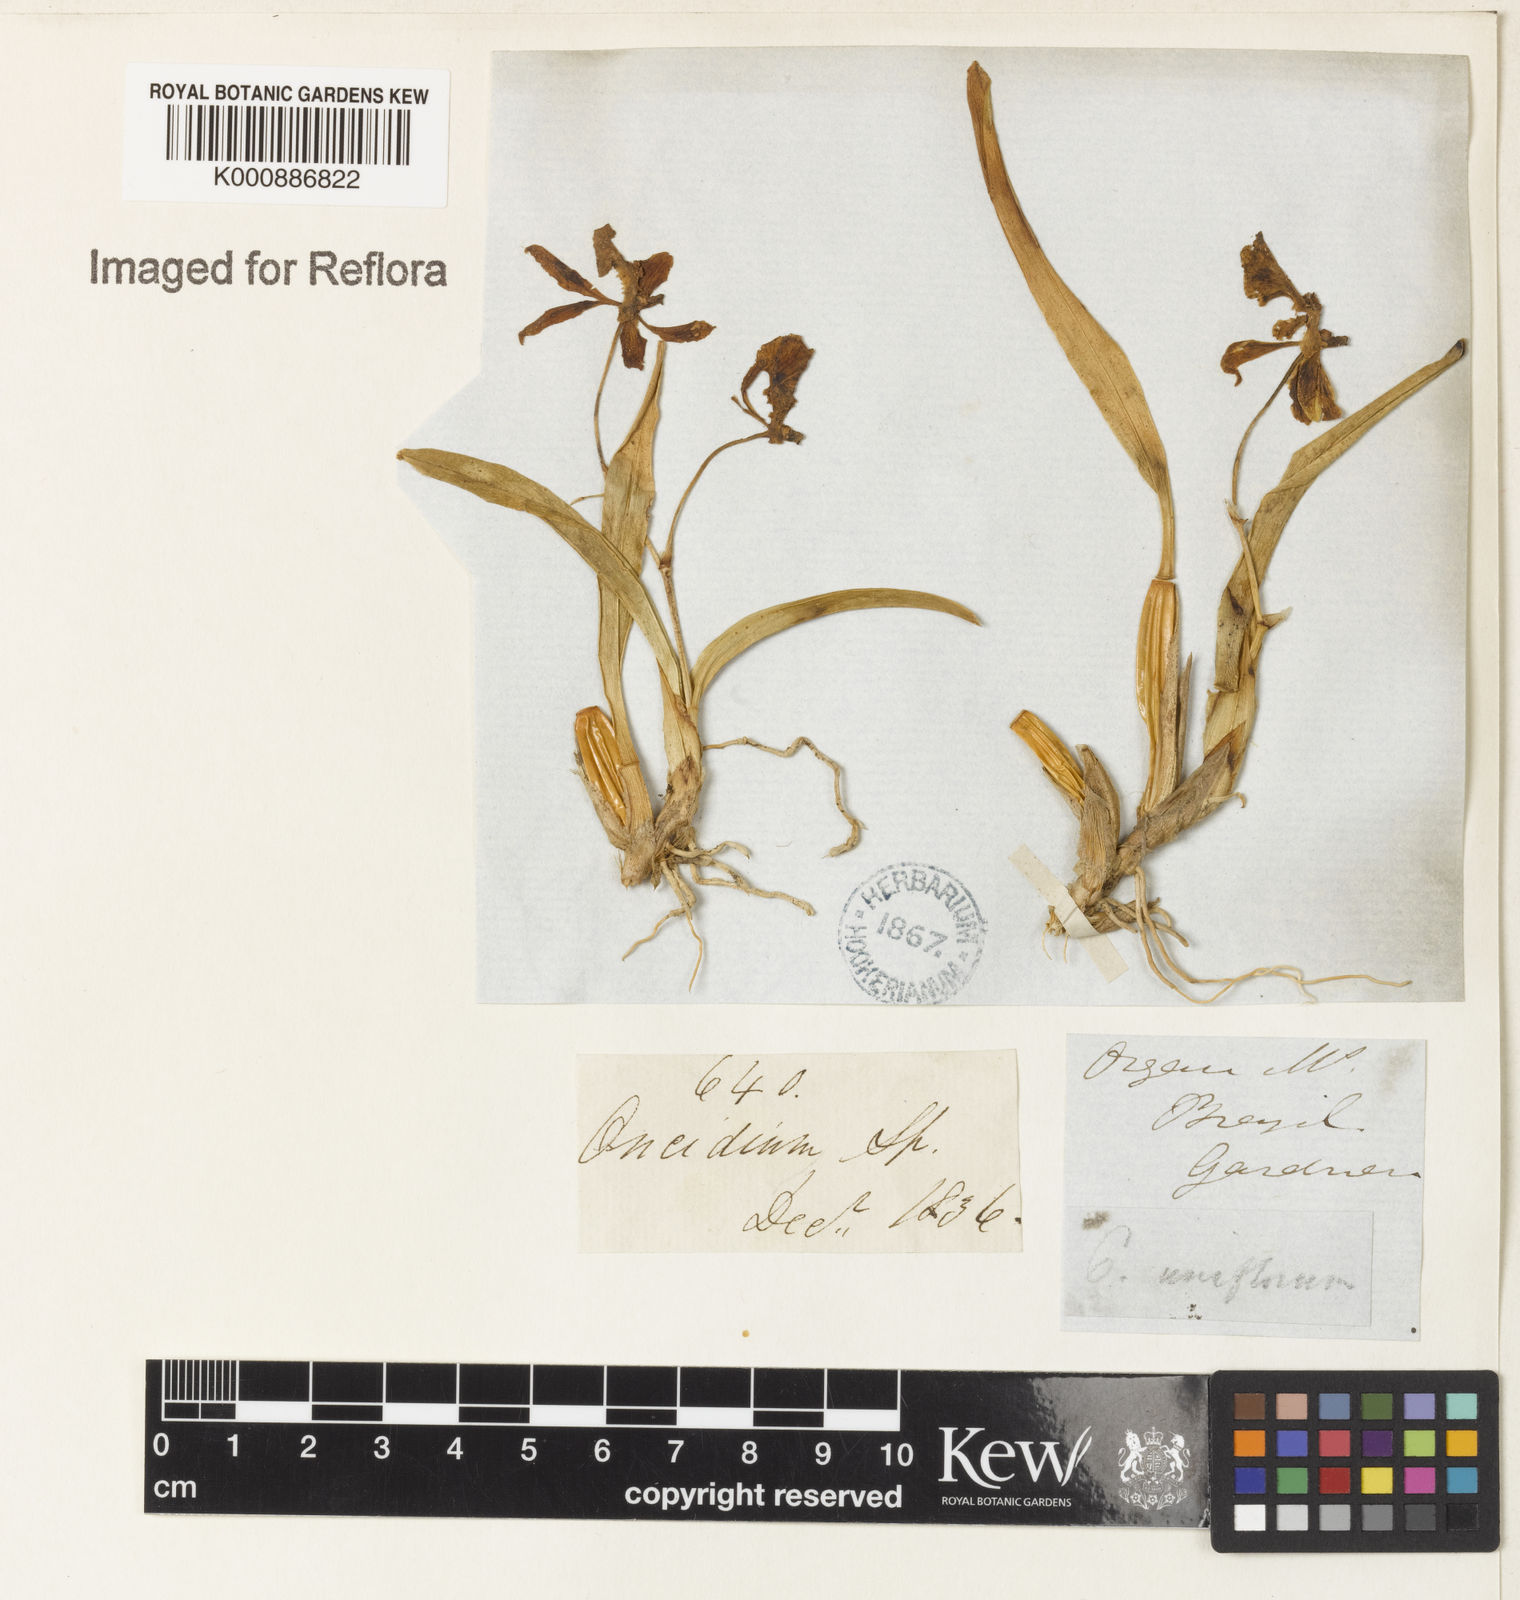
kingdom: Plantae
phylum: Tracheophyta
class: Liliopsida
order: Asparagales
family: Orchidaceae
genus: Gomesa
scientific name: Gomesa uniflora
